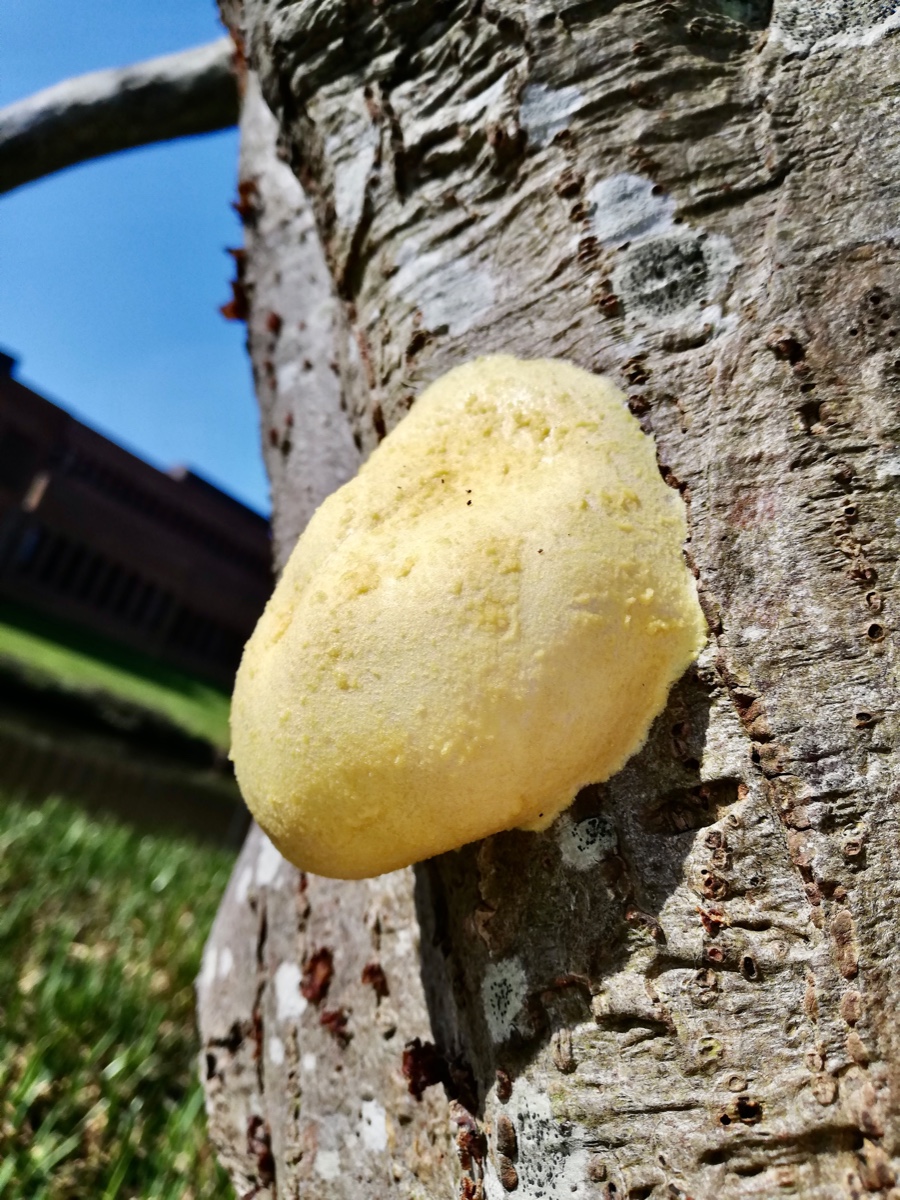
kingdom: Protozoa
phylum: Mycetozoa
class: Myxomycetes
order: Cribrariales
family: Tubiferaceae
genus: Reticularia
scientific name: Reticularia lycoperdon
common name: skinnende støvpude
